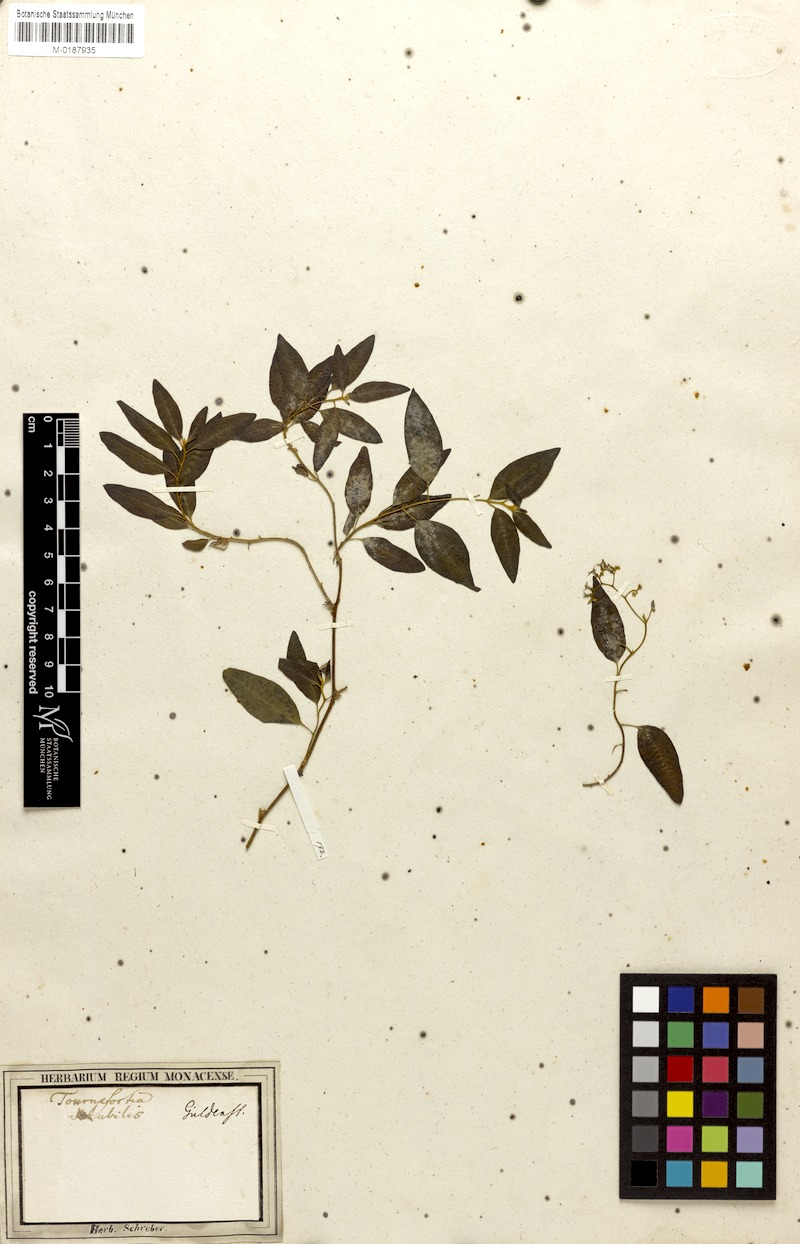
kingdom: Plantae
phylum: Tracheophyta
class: Magnoliopsida
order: Boraginales
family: Heliotropiaceae
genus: Myriopus
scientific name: Myriopus volubilis
